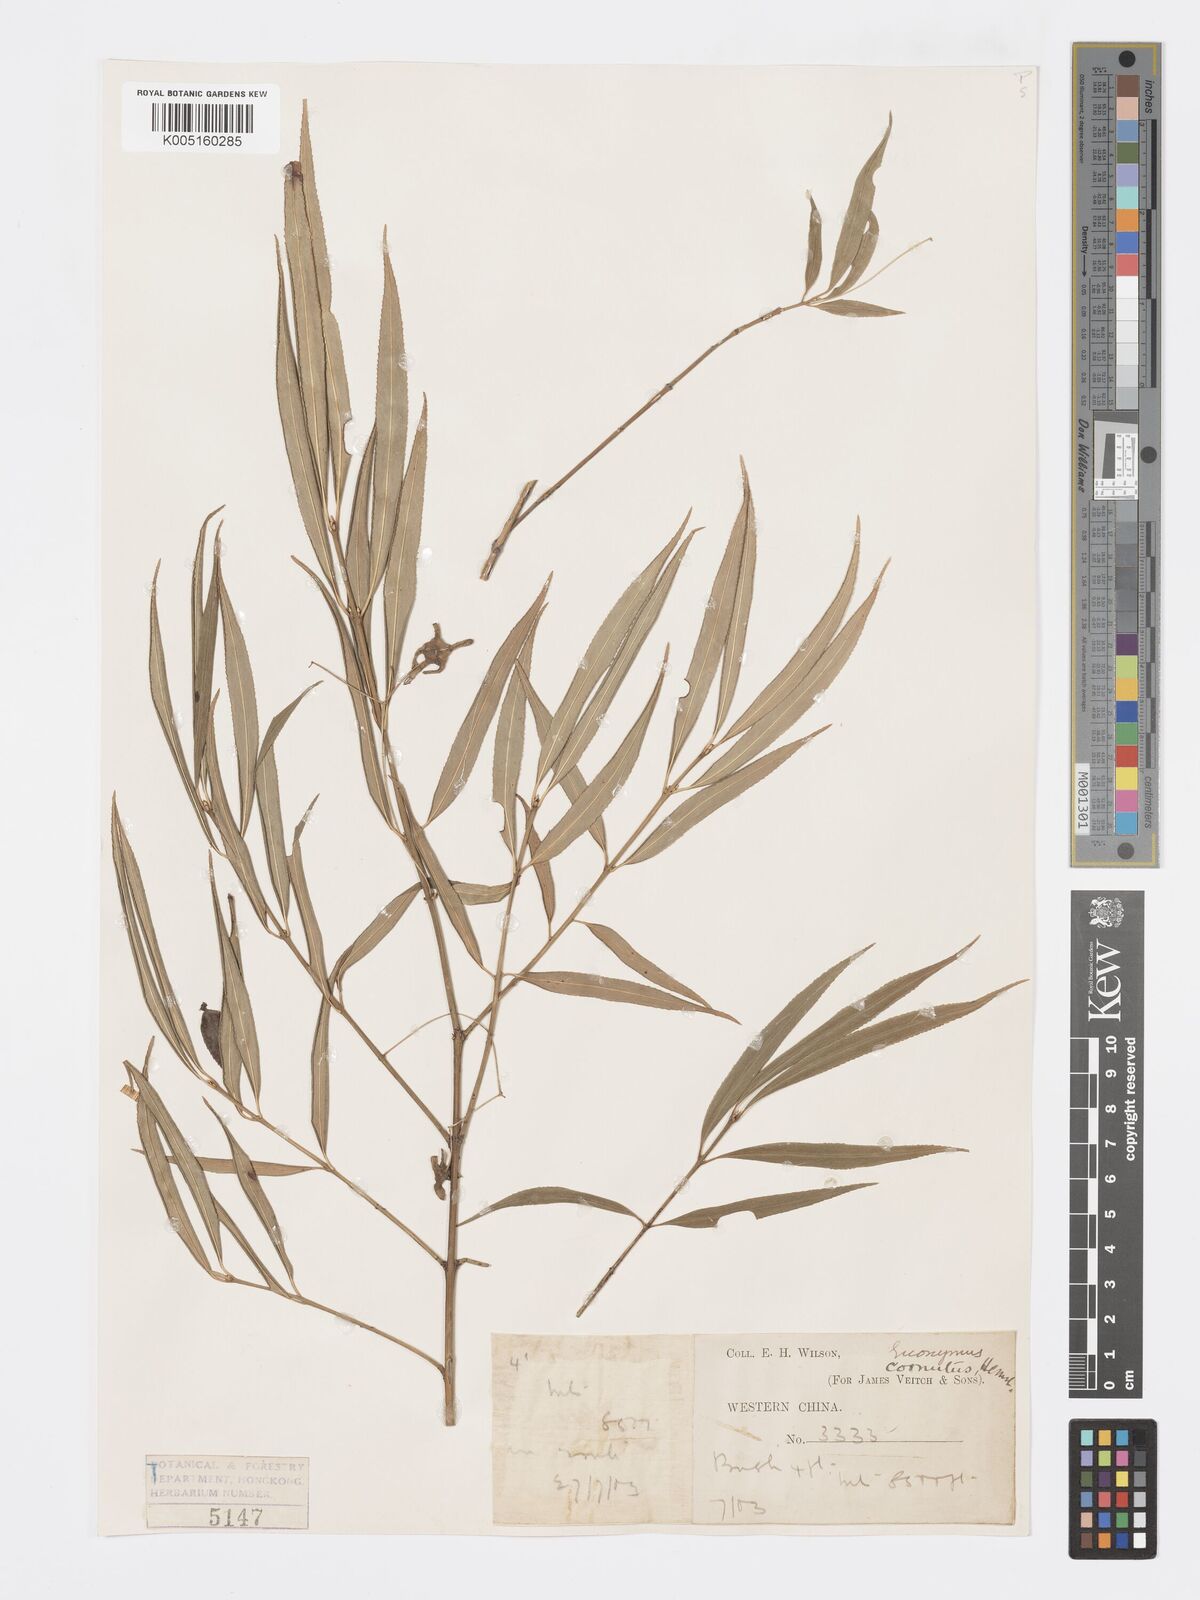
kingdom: Plantae
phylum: Tracheophyta
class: Magnoliopsida
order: Celastrales
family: Celastraceae
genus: Euonymus
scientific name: Euonymus
